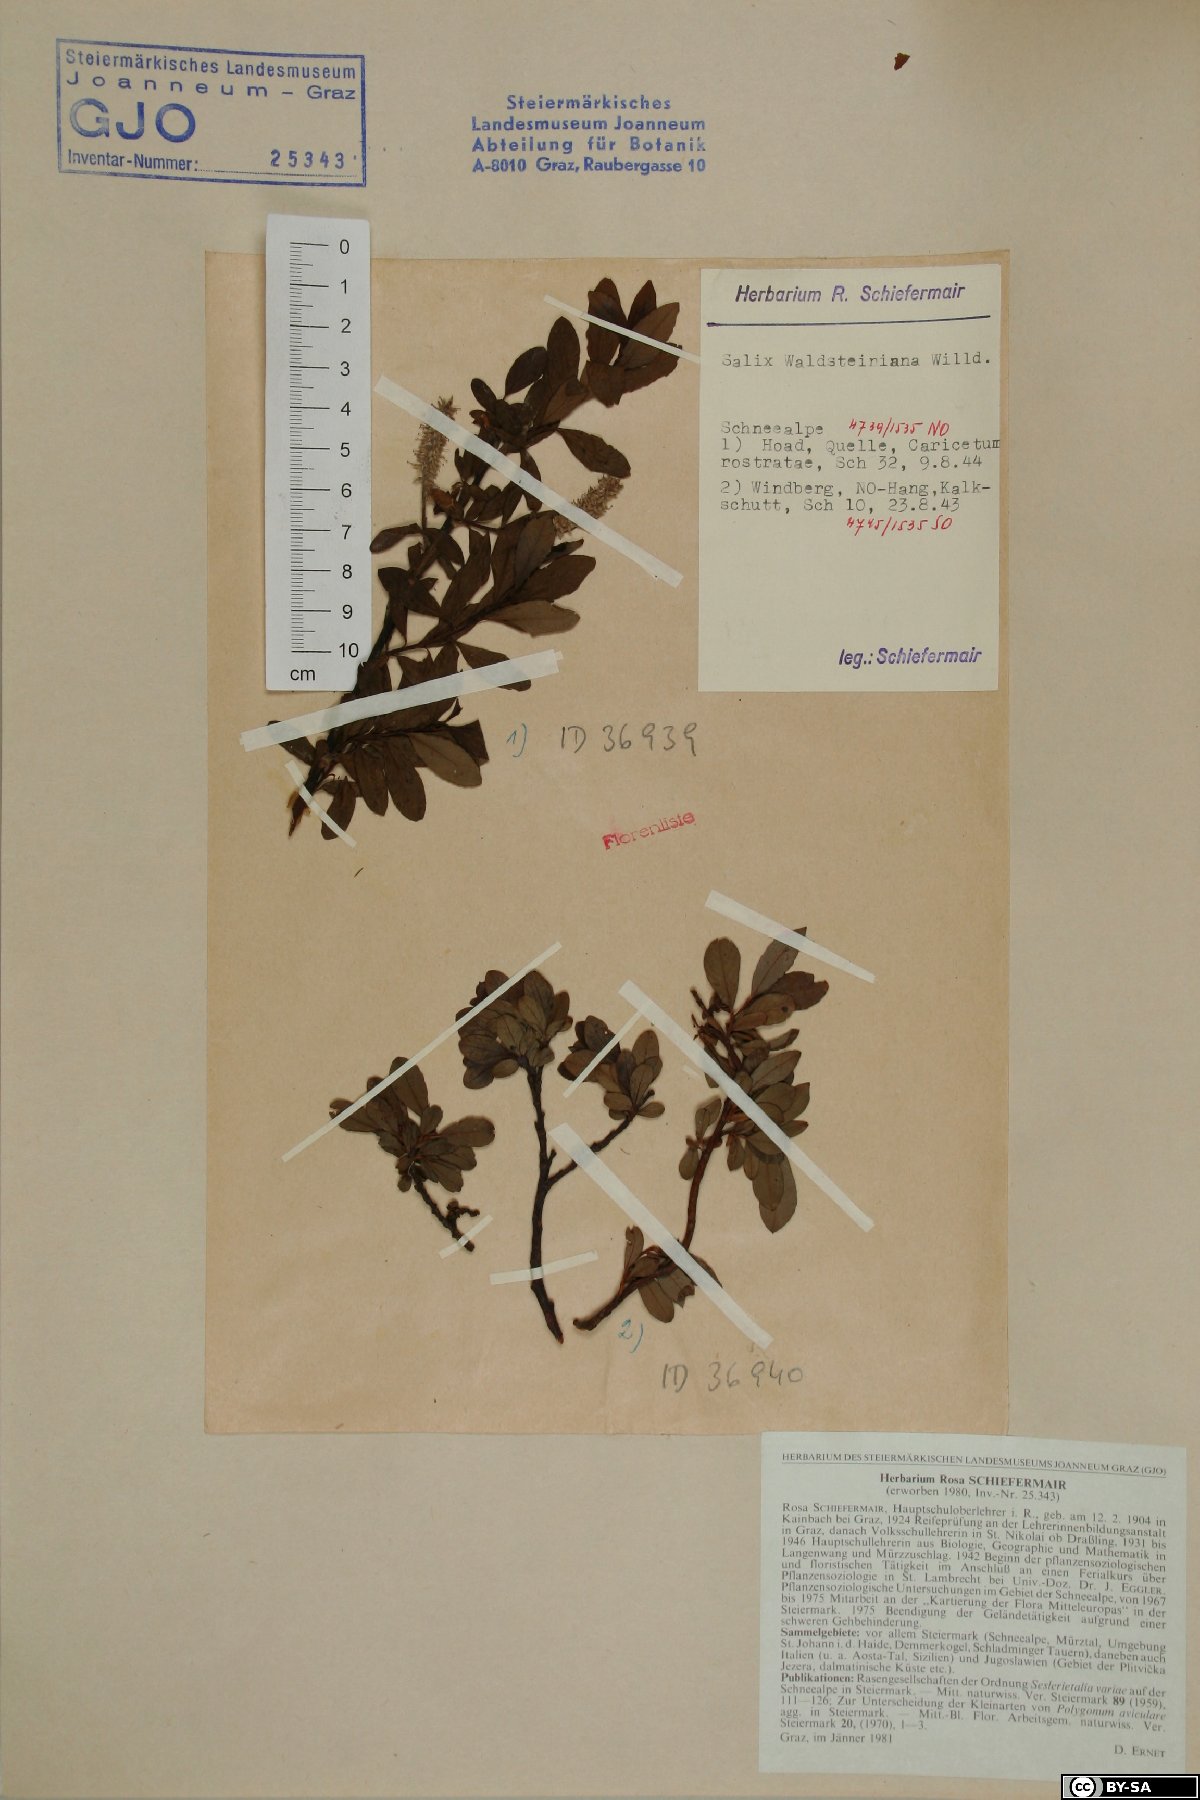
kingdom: Plantae
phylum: Tracheophyta
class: Magnoliopsida
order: Malpighiales
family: Salicaceae
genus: Salix
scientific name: Salix waldsteiniana
